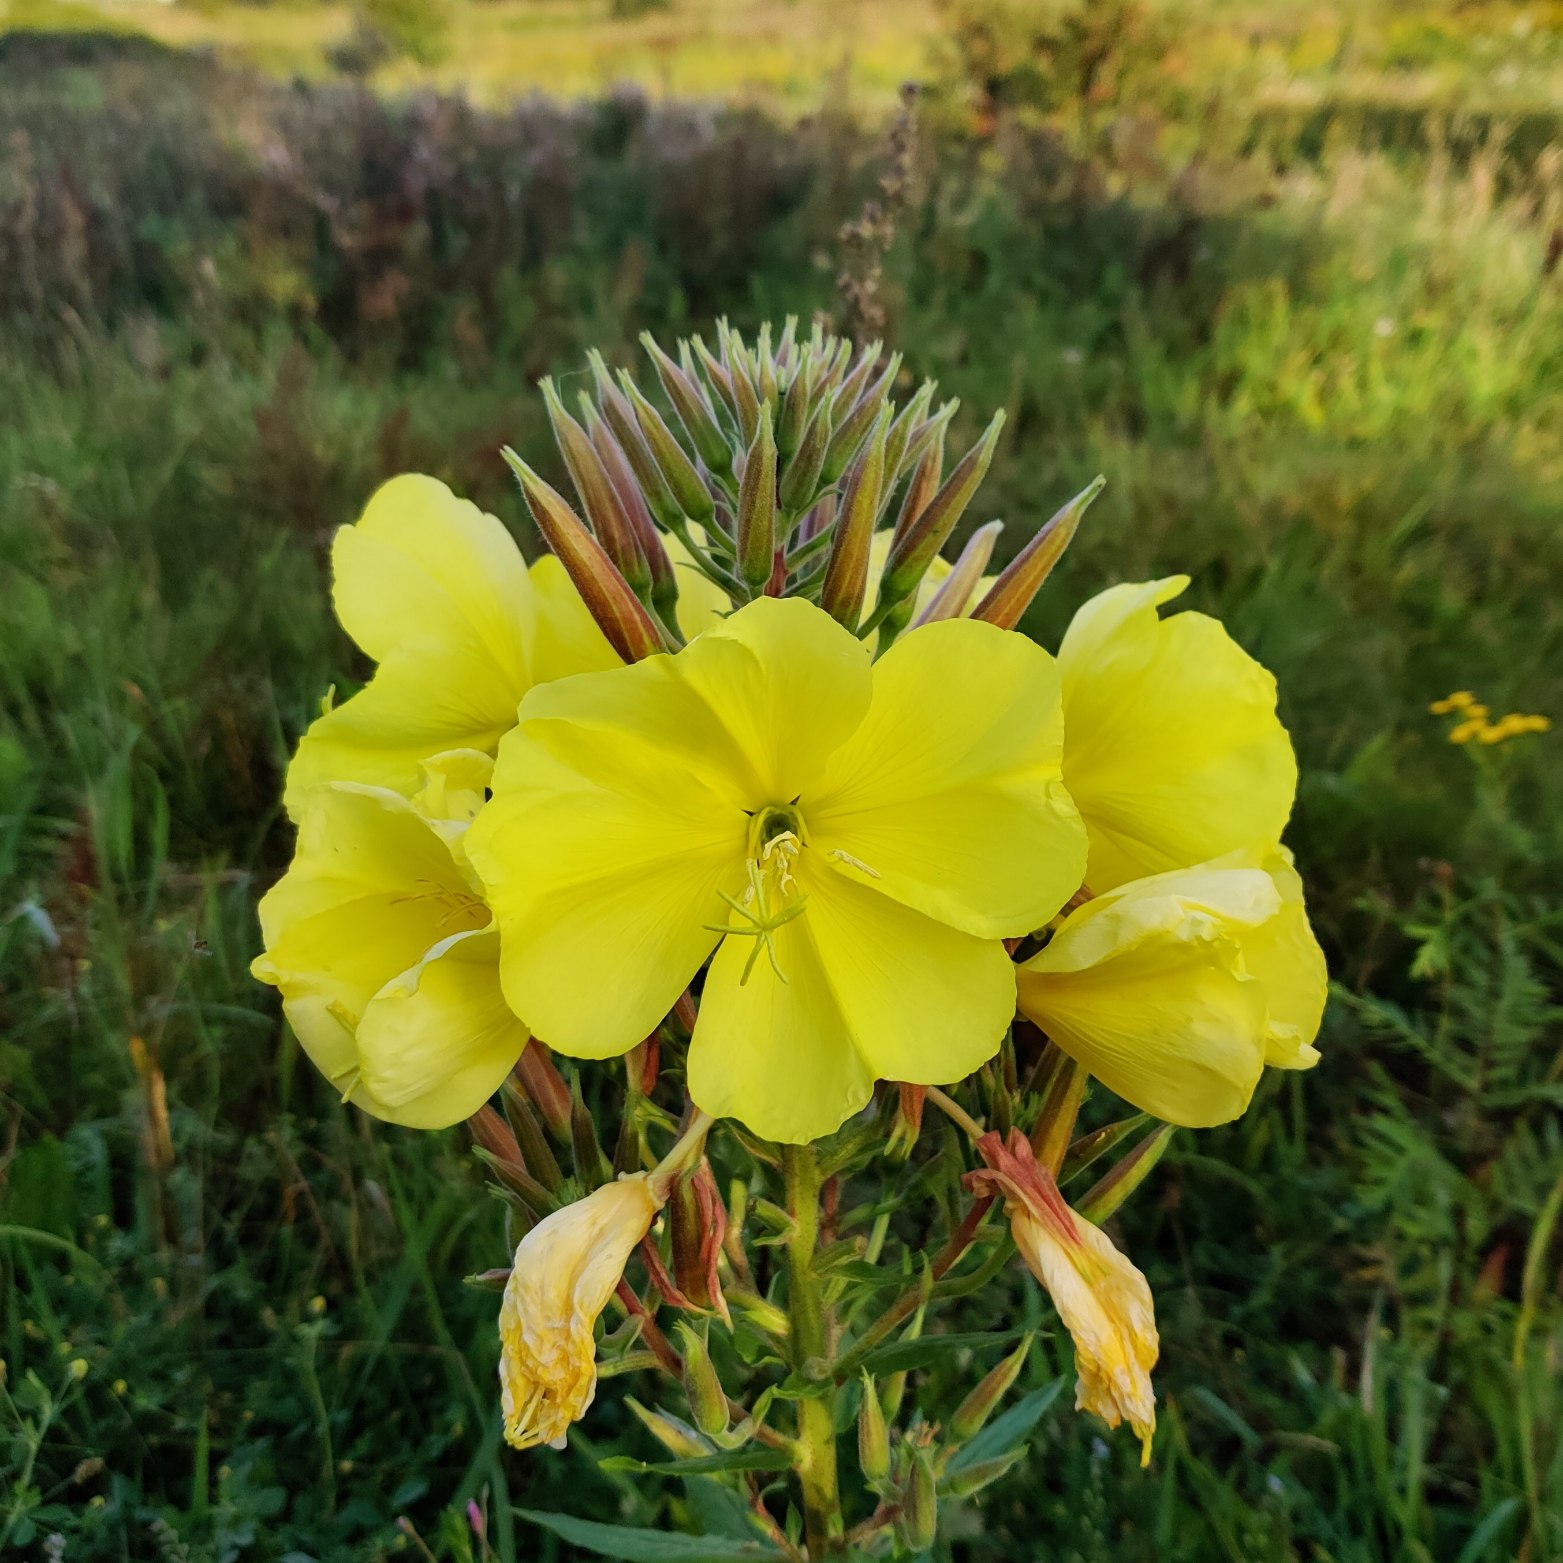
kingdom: Plantae
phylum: Tracheophyta
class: Magnoliopsida
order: Myrtales
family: Onagraceae
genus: Oenothera
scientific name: Oenothera glazioviana
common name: Kæmpe-natlys
